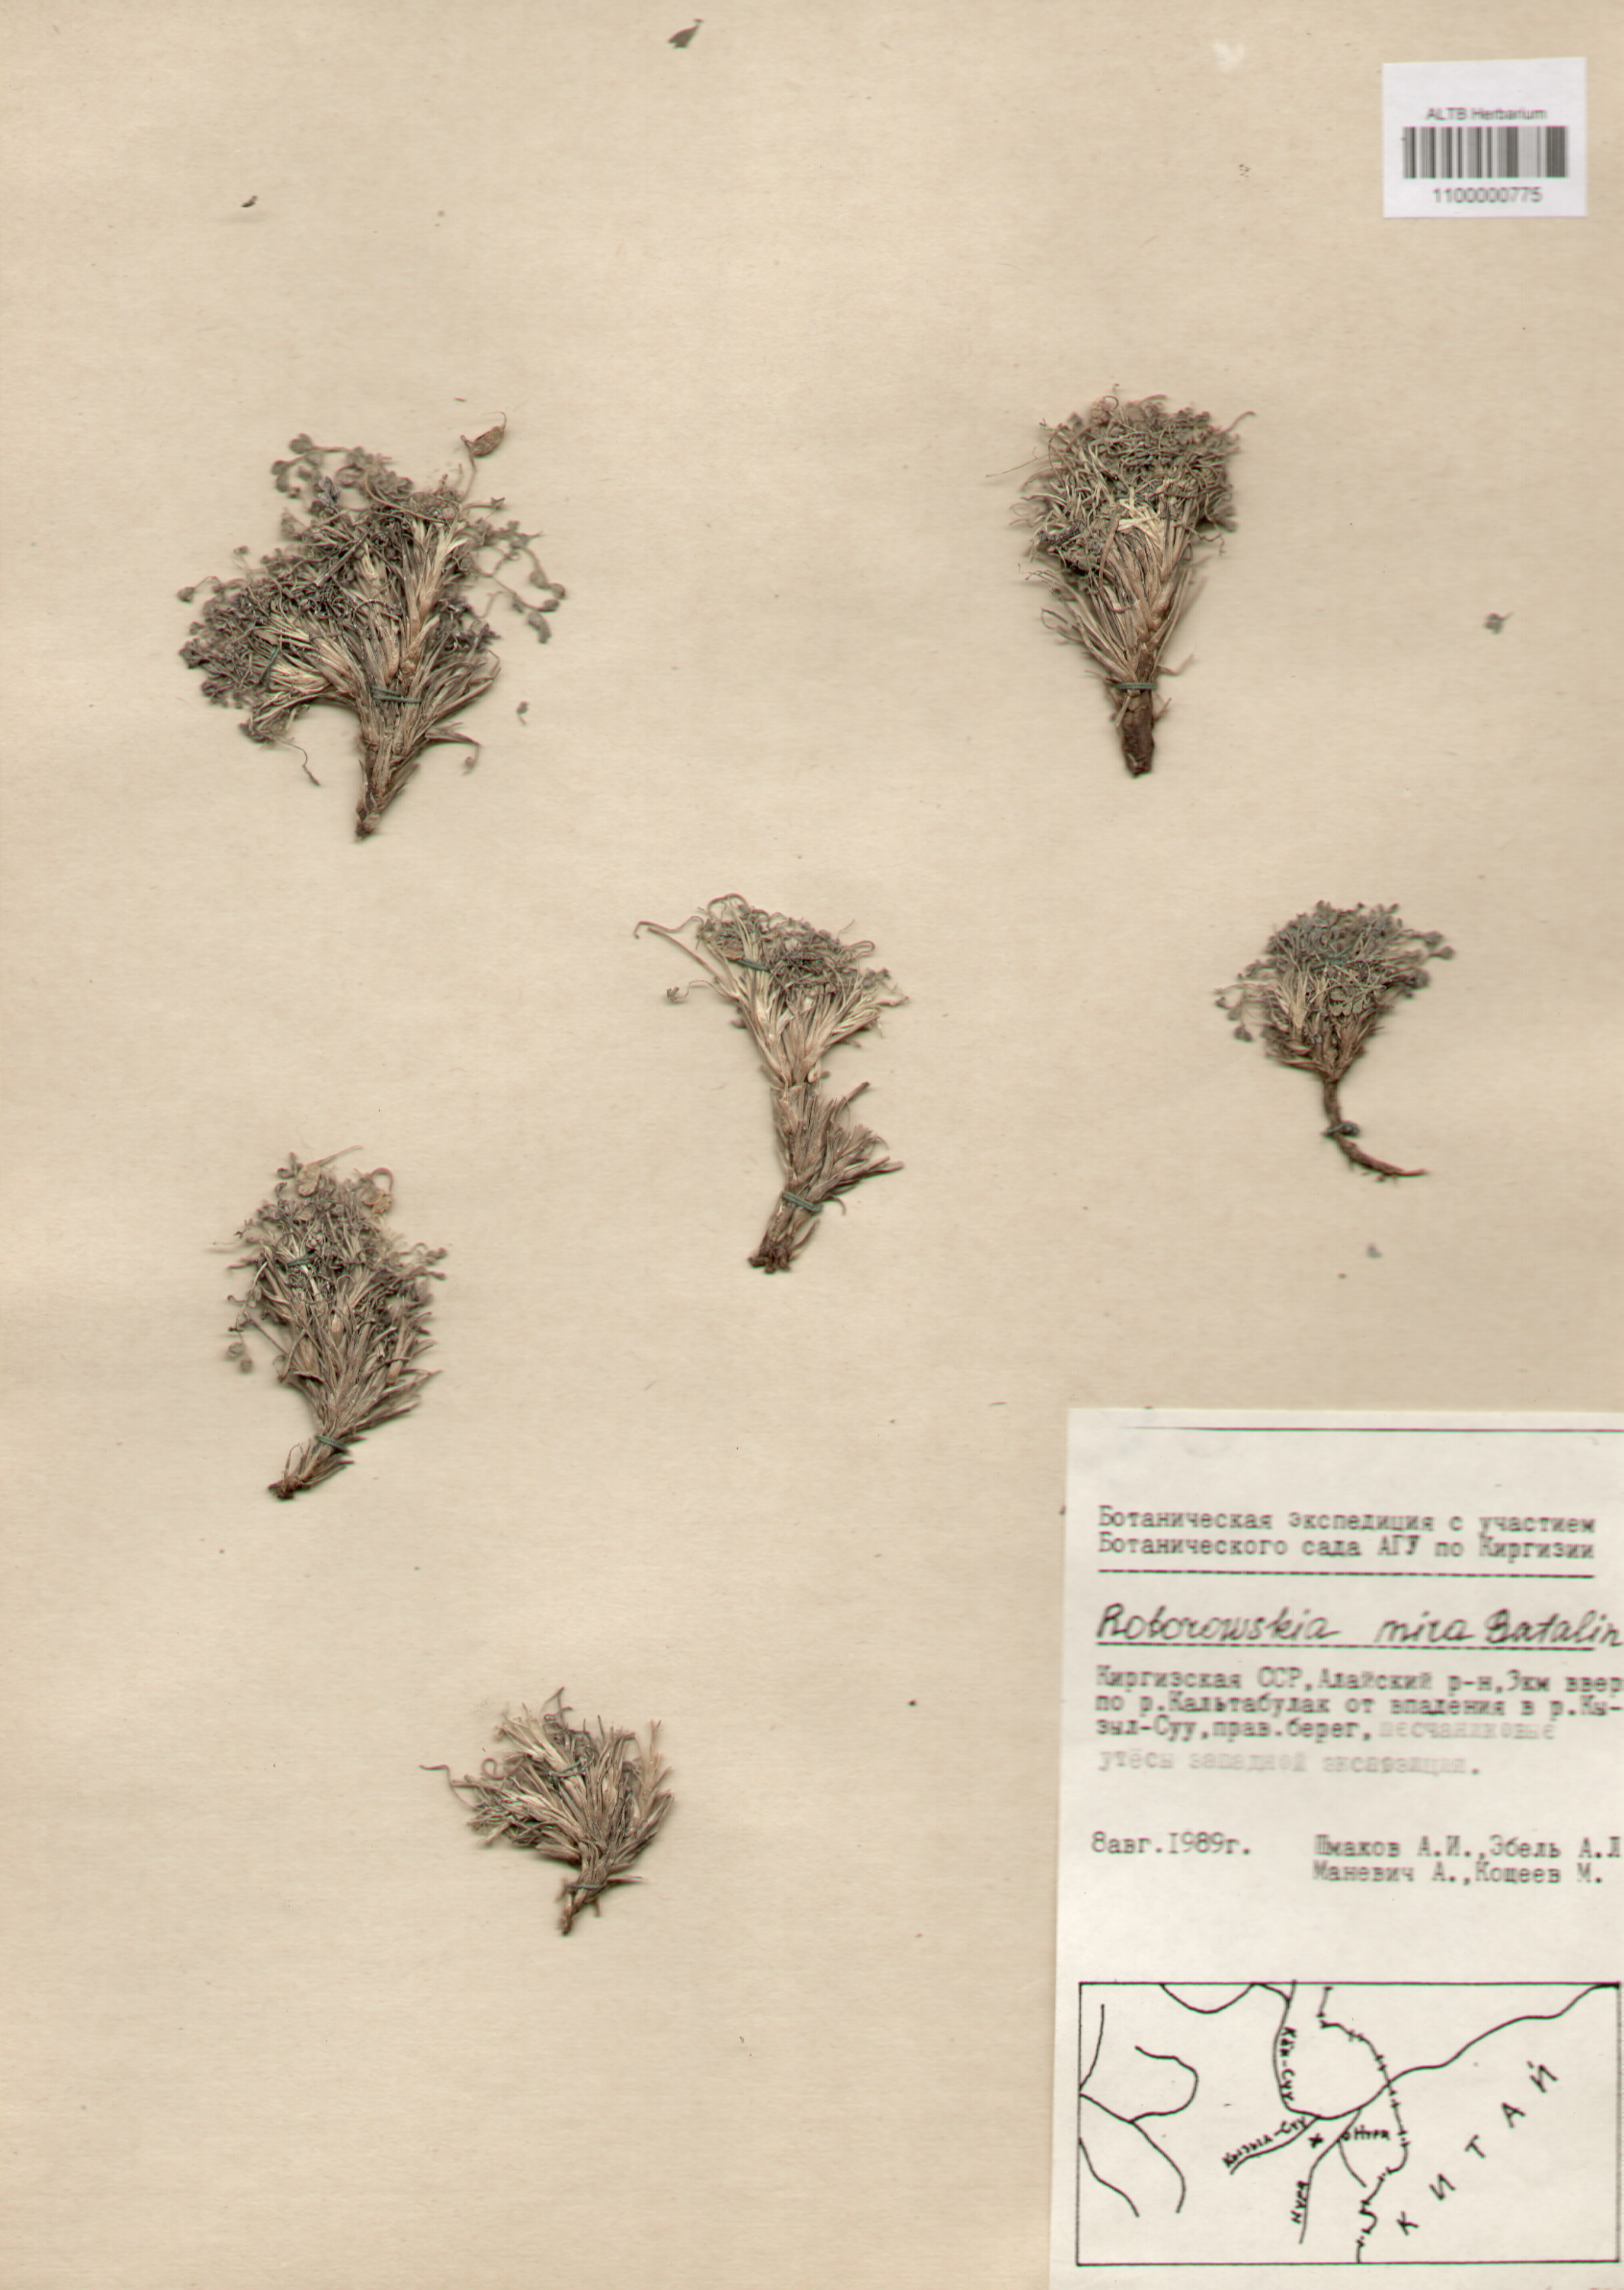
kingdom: Plantae
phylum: Tracheophyta
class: Magnoliopsida
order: Ranunculales
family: Papaveraceae
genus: Corydalis
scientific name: Corydalis mira
